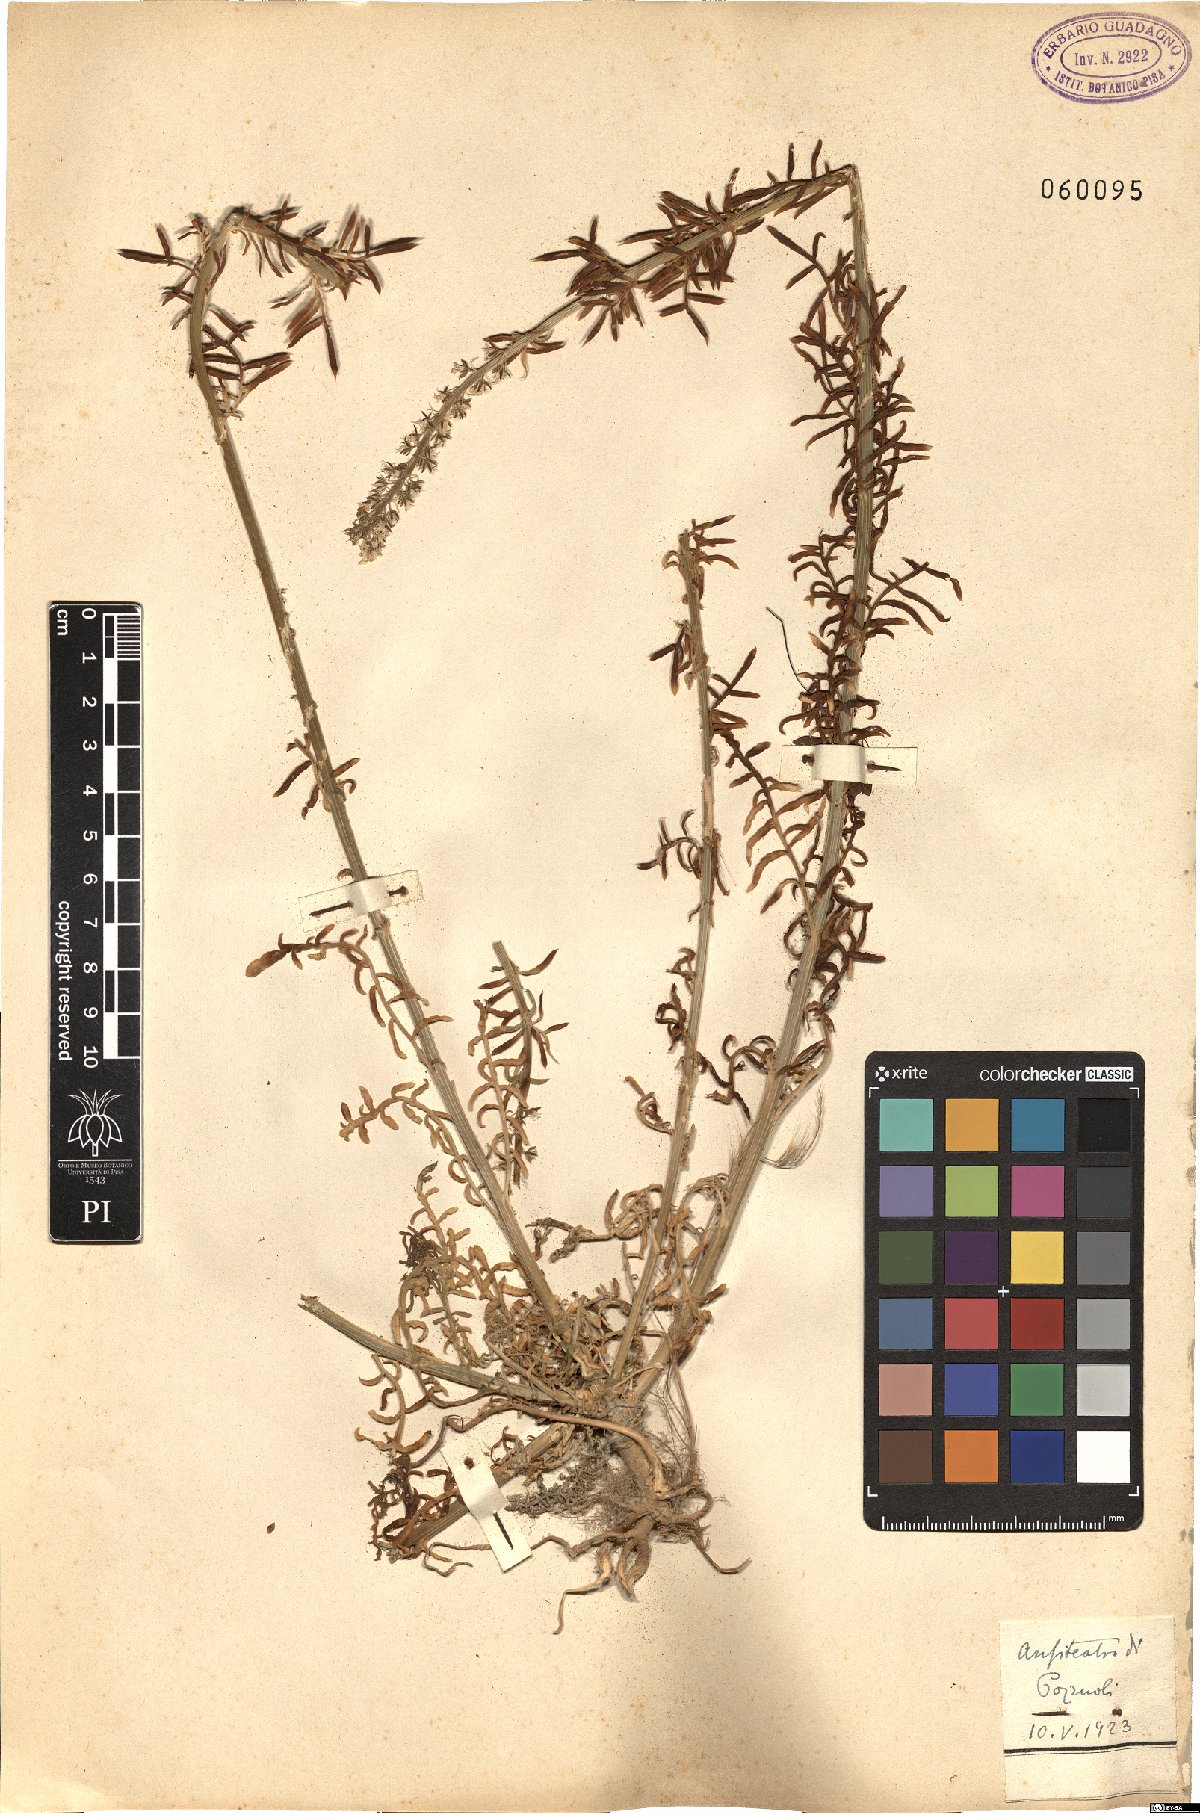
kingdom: Plantae
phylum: Tracheophyta
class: Magnoliopsida
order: Brassicales
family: Resedaceae
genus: Reseda
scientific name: Reseda alba
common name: White mignonette
